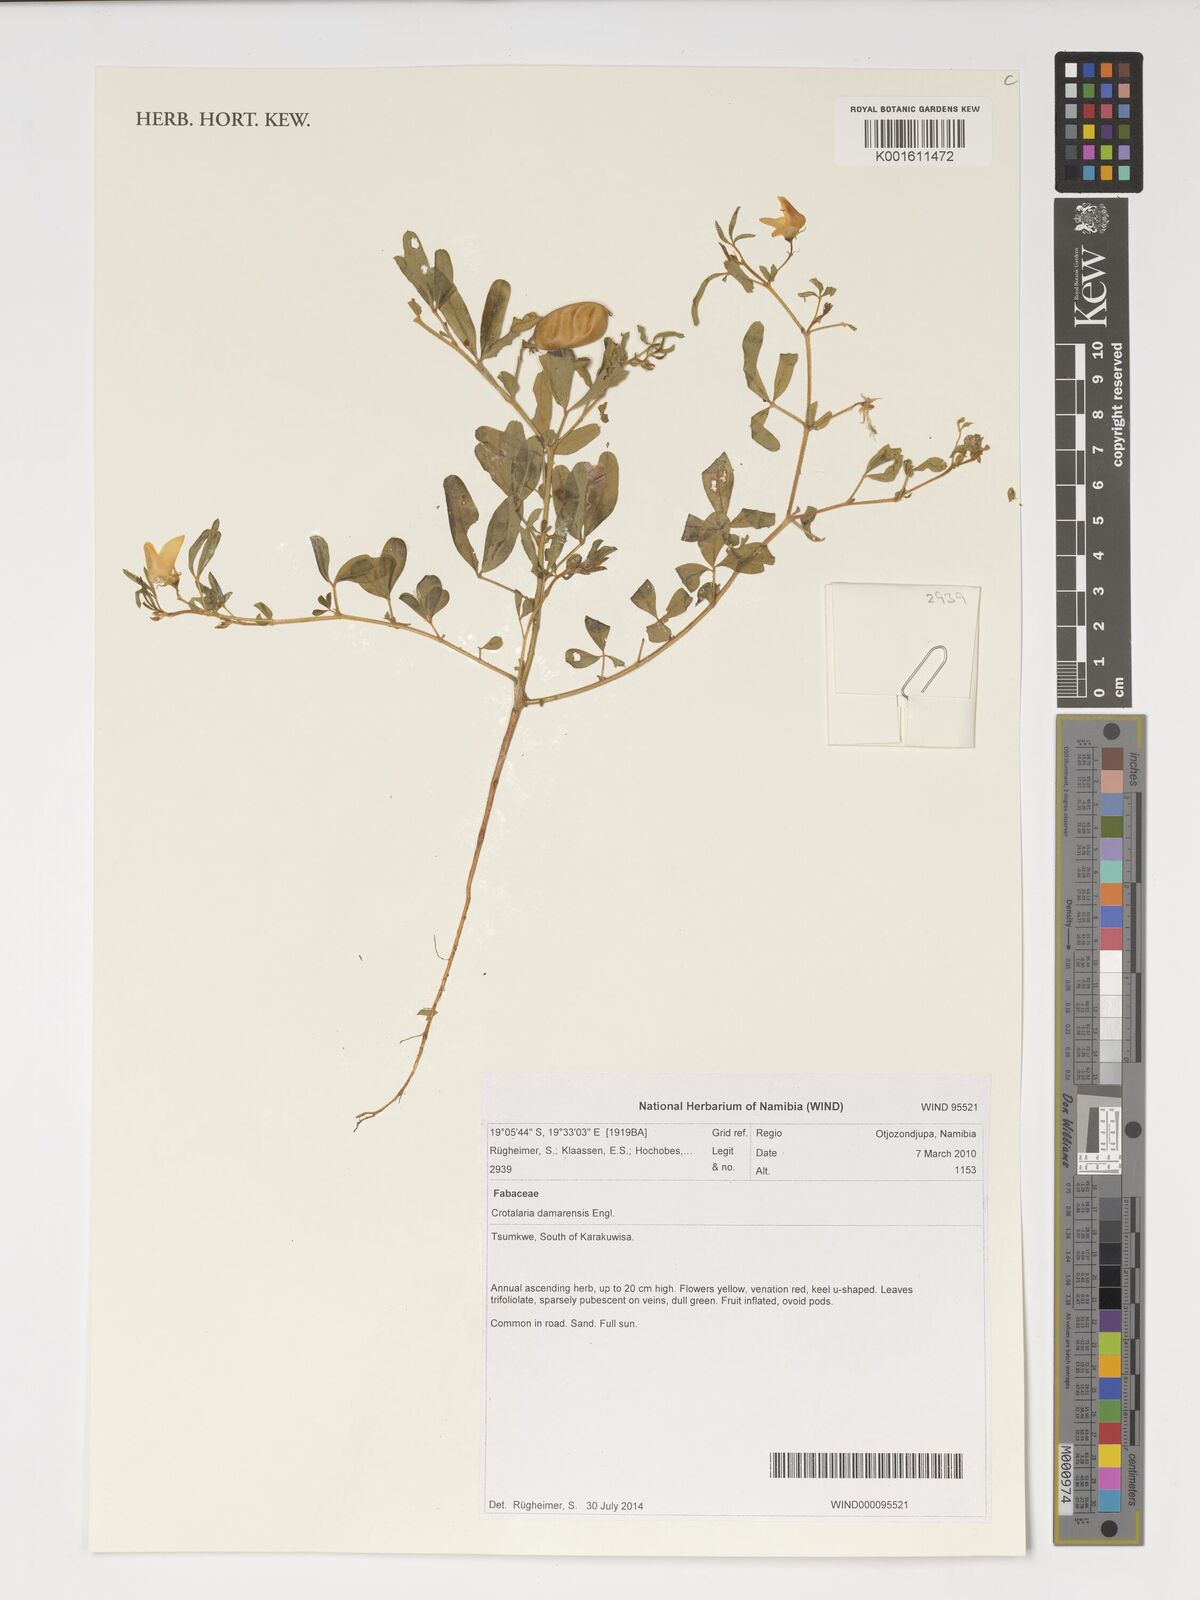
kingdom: Plantae
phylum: Tracheophyta
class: Magnoliopsida
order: Fabales
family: Fabaceae
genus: Crotalaria
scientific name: Crotalaria damarensis
